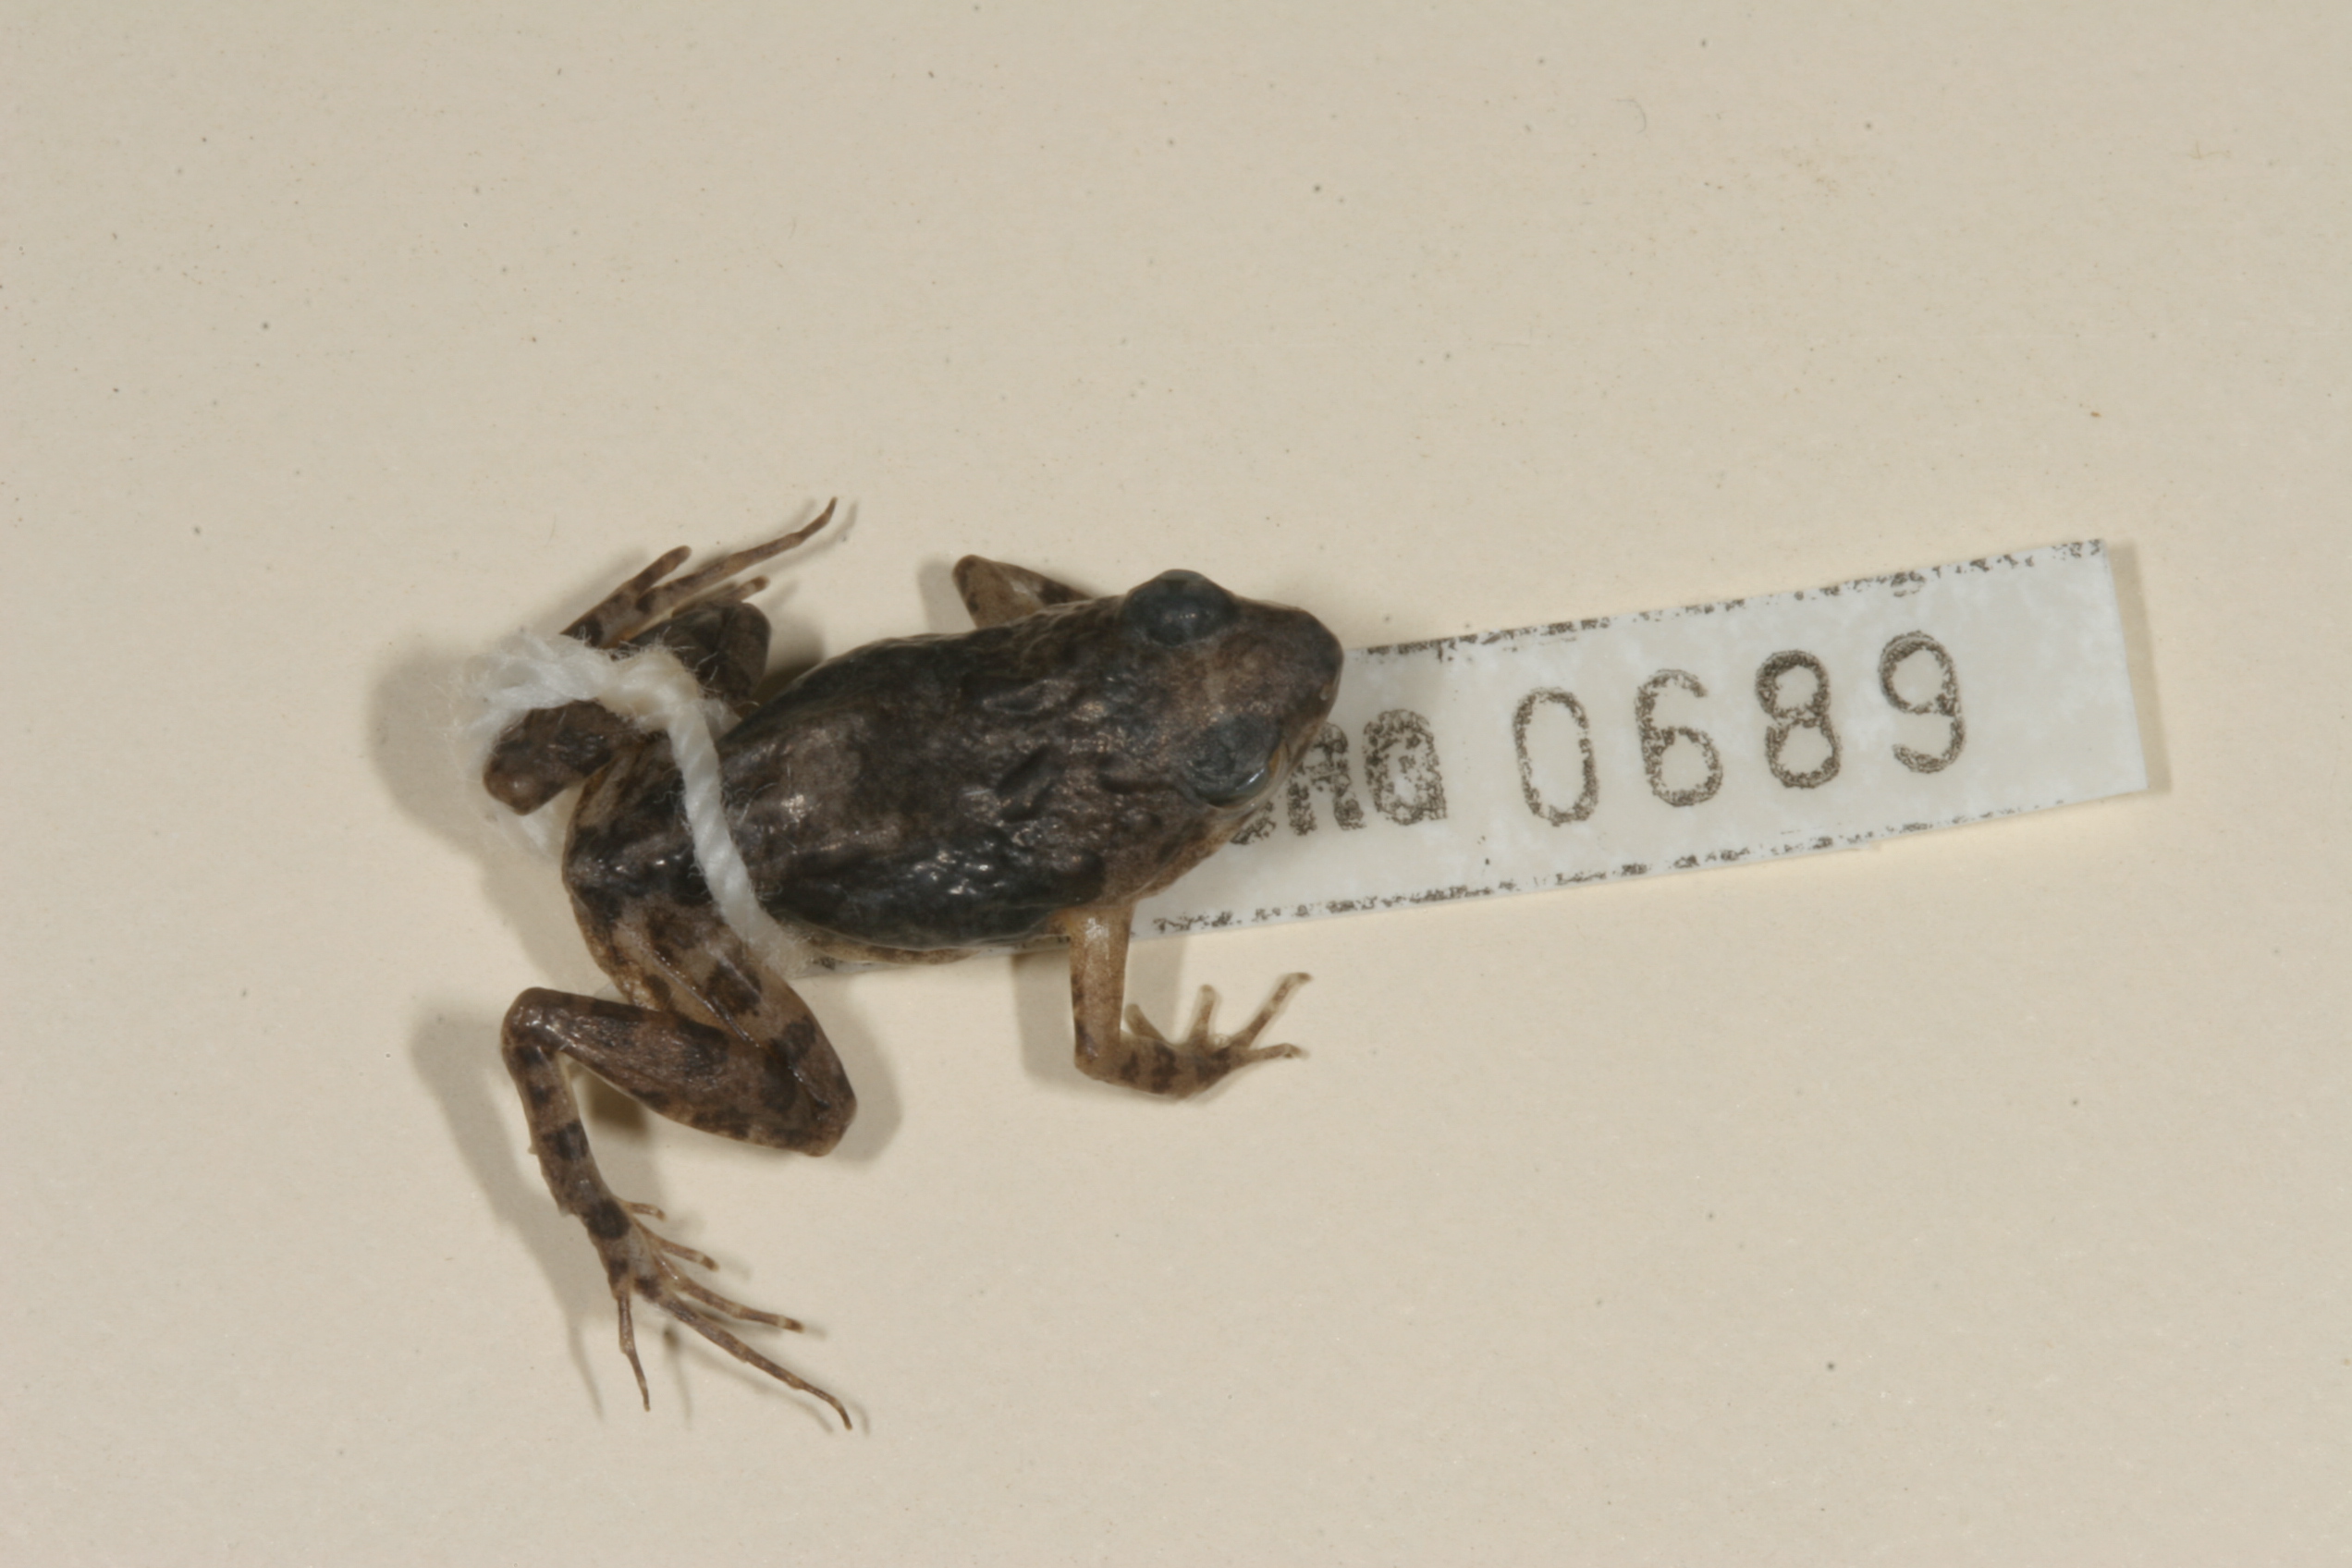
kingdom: Animalia
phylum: Chordata
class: Amphibia
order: Anura
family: Phrynobatrachidae
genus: Phrynobatrachus
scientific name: Phrynobatrachus mababiensis
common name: Dwarf puddle frog
